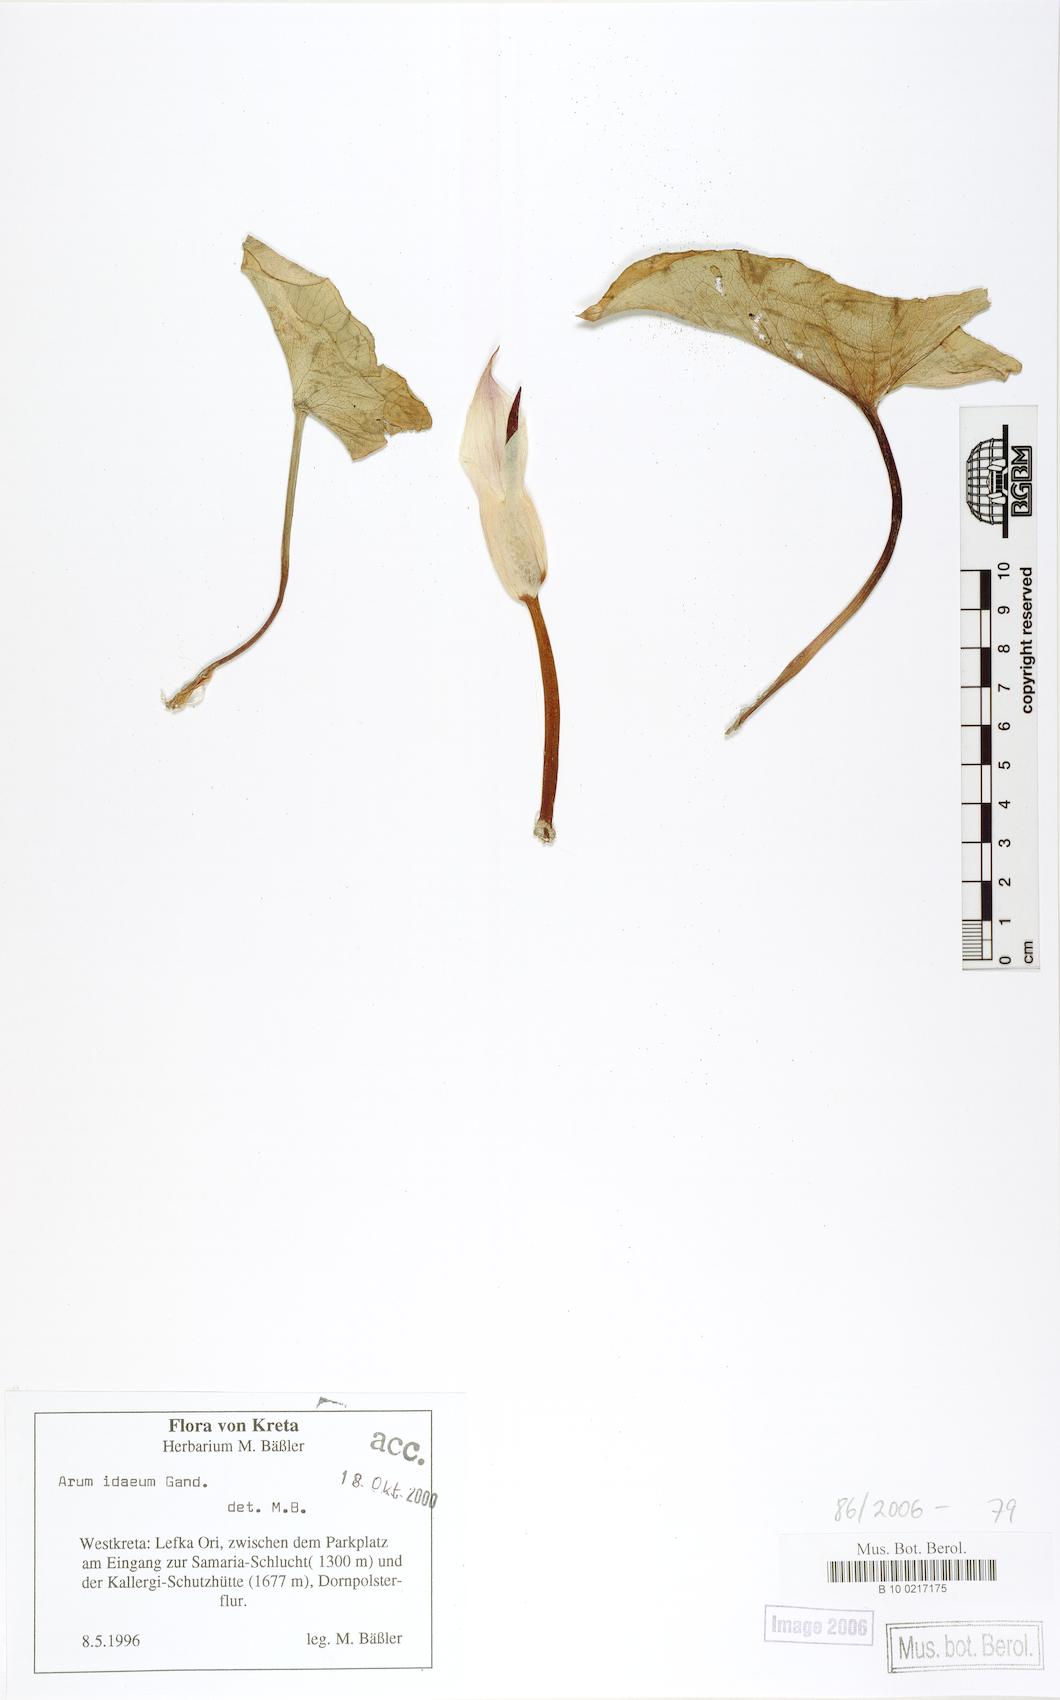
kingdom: Plantae
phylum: Tracheophyta
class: Liliopsida
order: Alismatales
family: Araceae
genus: Arum
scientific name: Arum idaeum
